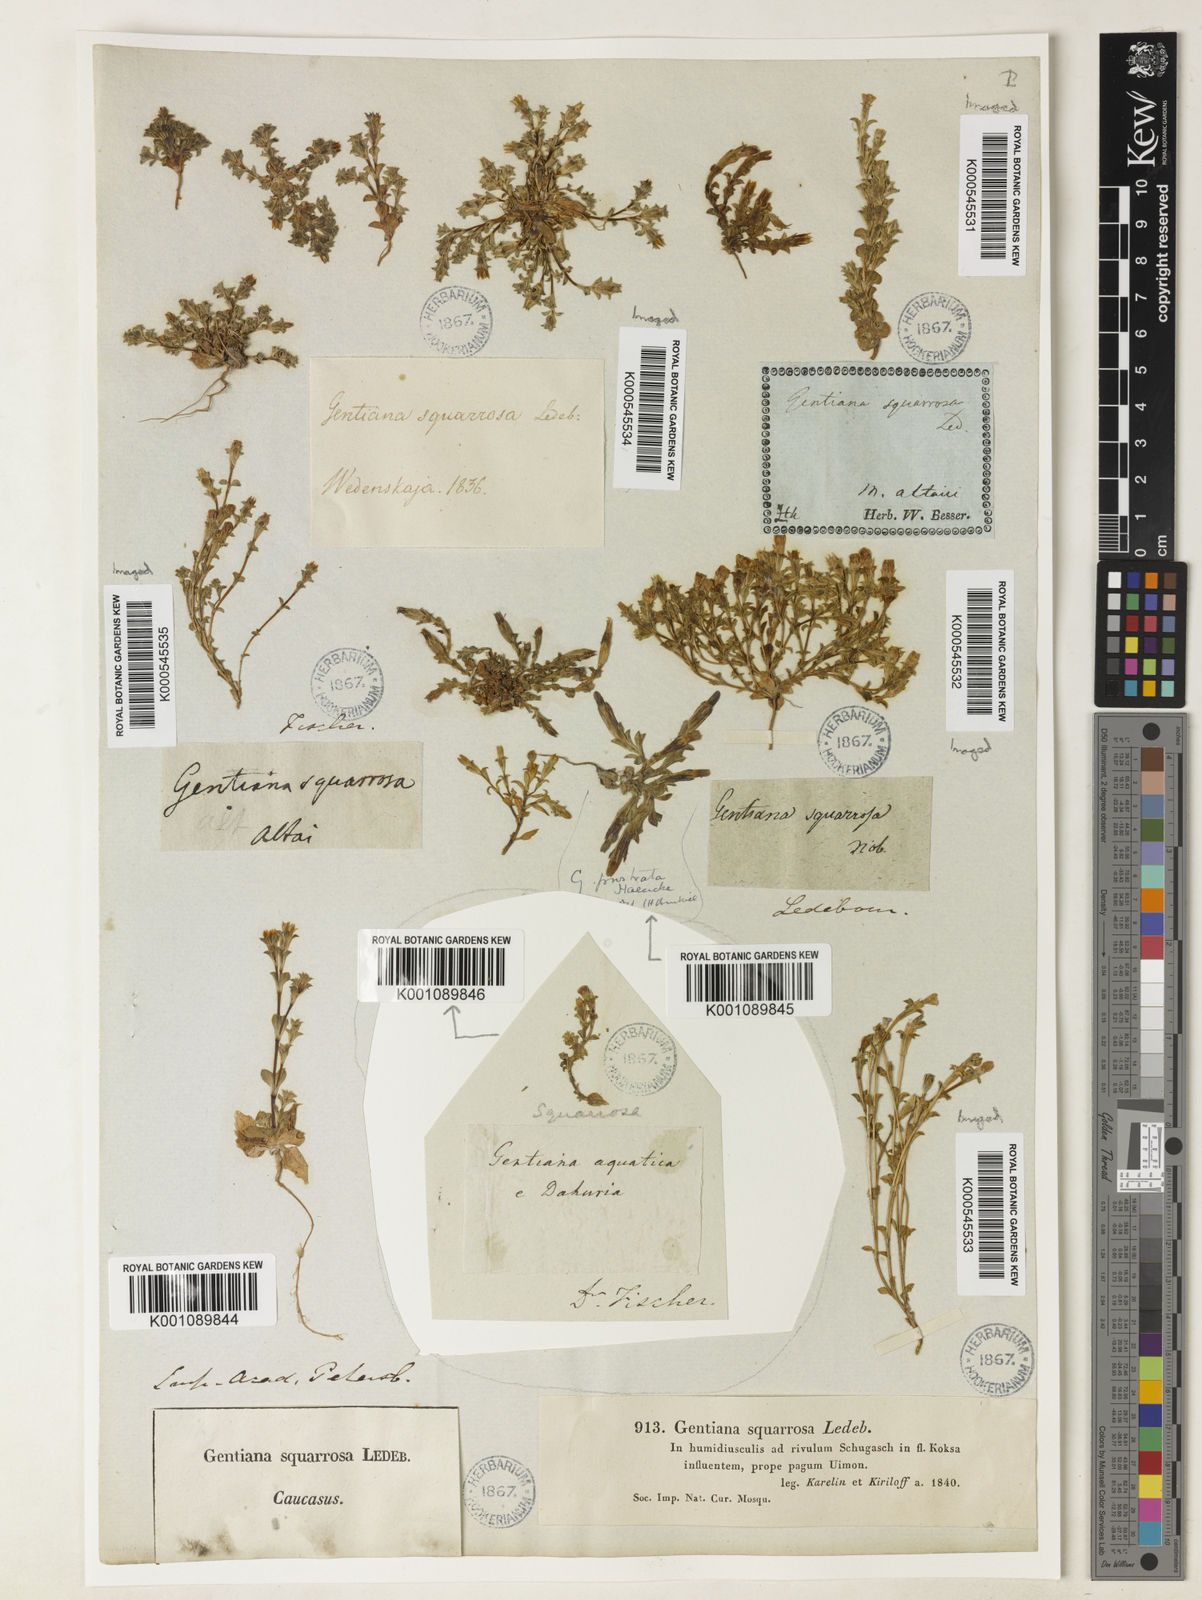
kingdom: Plantae
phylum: Tracheophyta
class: Magnoliopsida
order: Gentianales
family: Gentianaceae
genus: Gentiana
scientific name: Gentiana squarrosa
